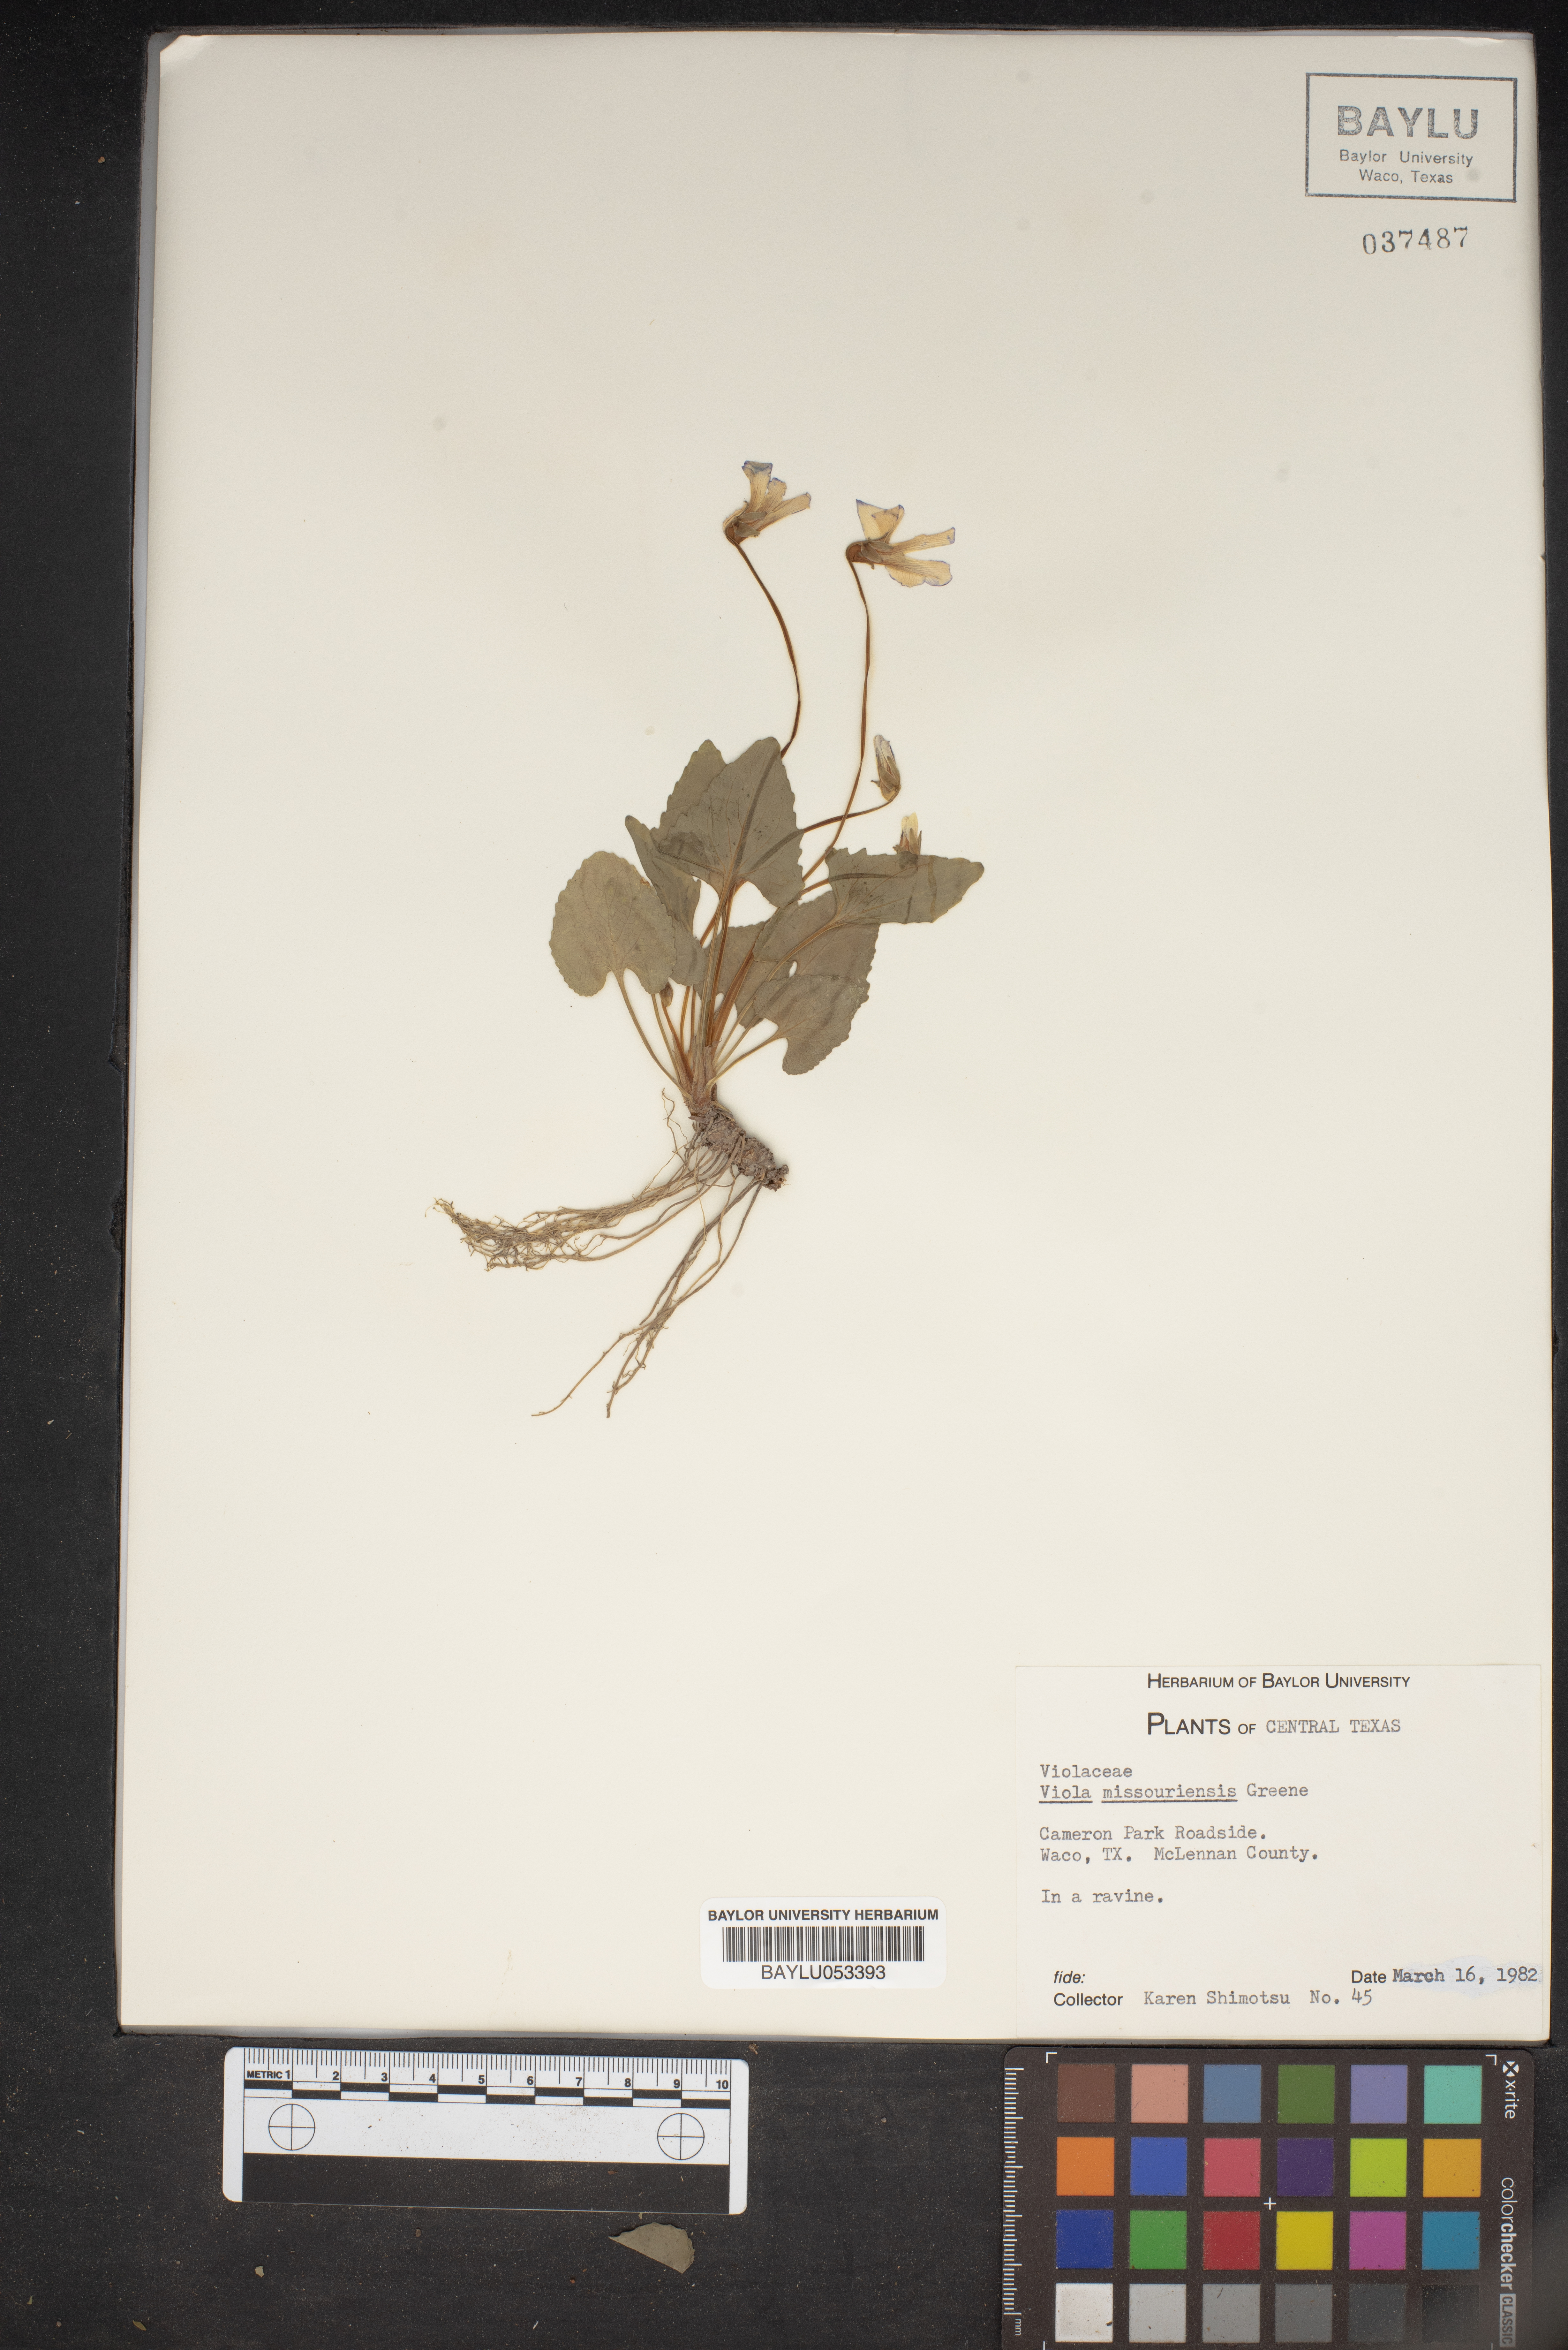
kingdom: Plantae
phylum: Tracheophyta
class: Magnoliopsida
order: Malpighiales
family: Violaceae
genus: Viola
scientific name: Viola missouriensis
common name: Missouri violet
